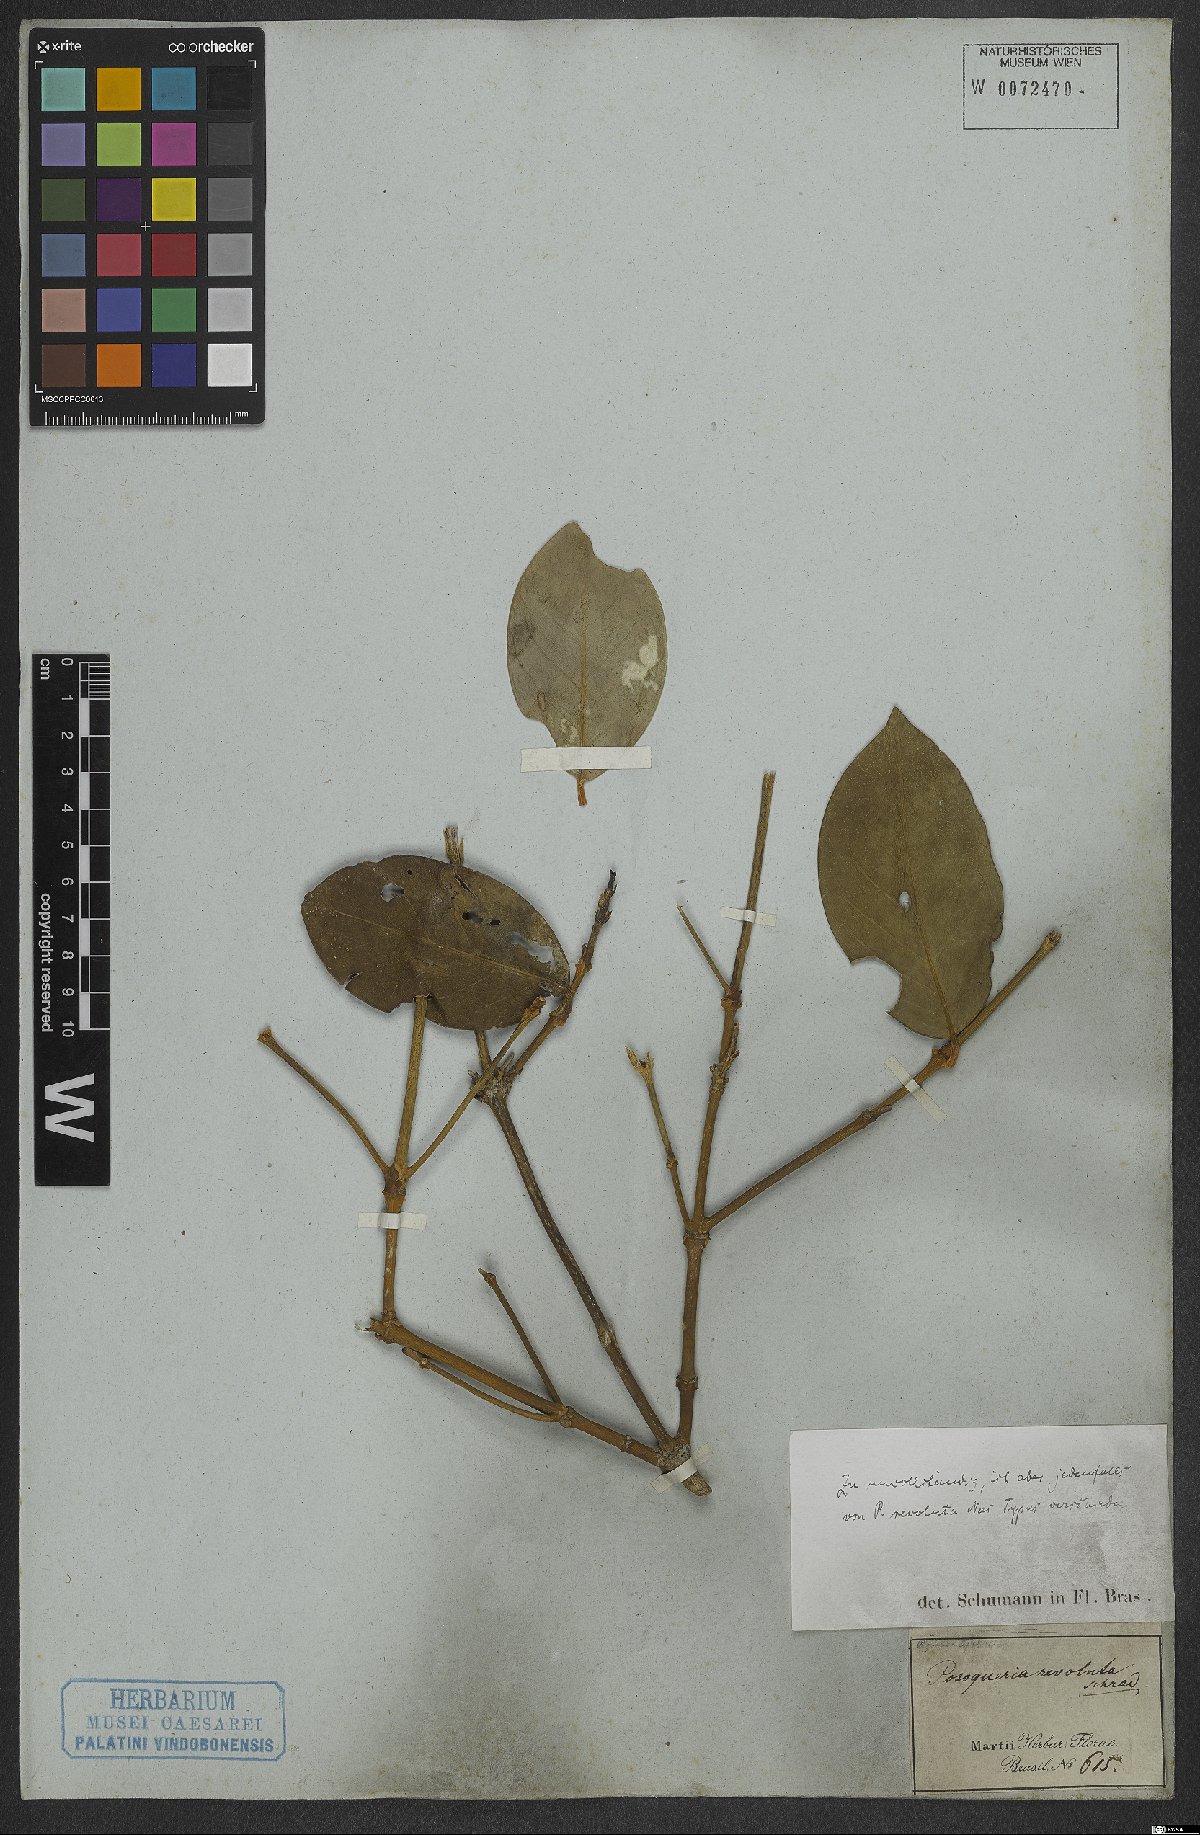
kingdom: Plantae
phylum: Tracheophyta
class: Magnoliopsida
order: Gentianales
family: Rubiaceae
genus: Posoqueria
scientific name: Posoqueria latifolia
